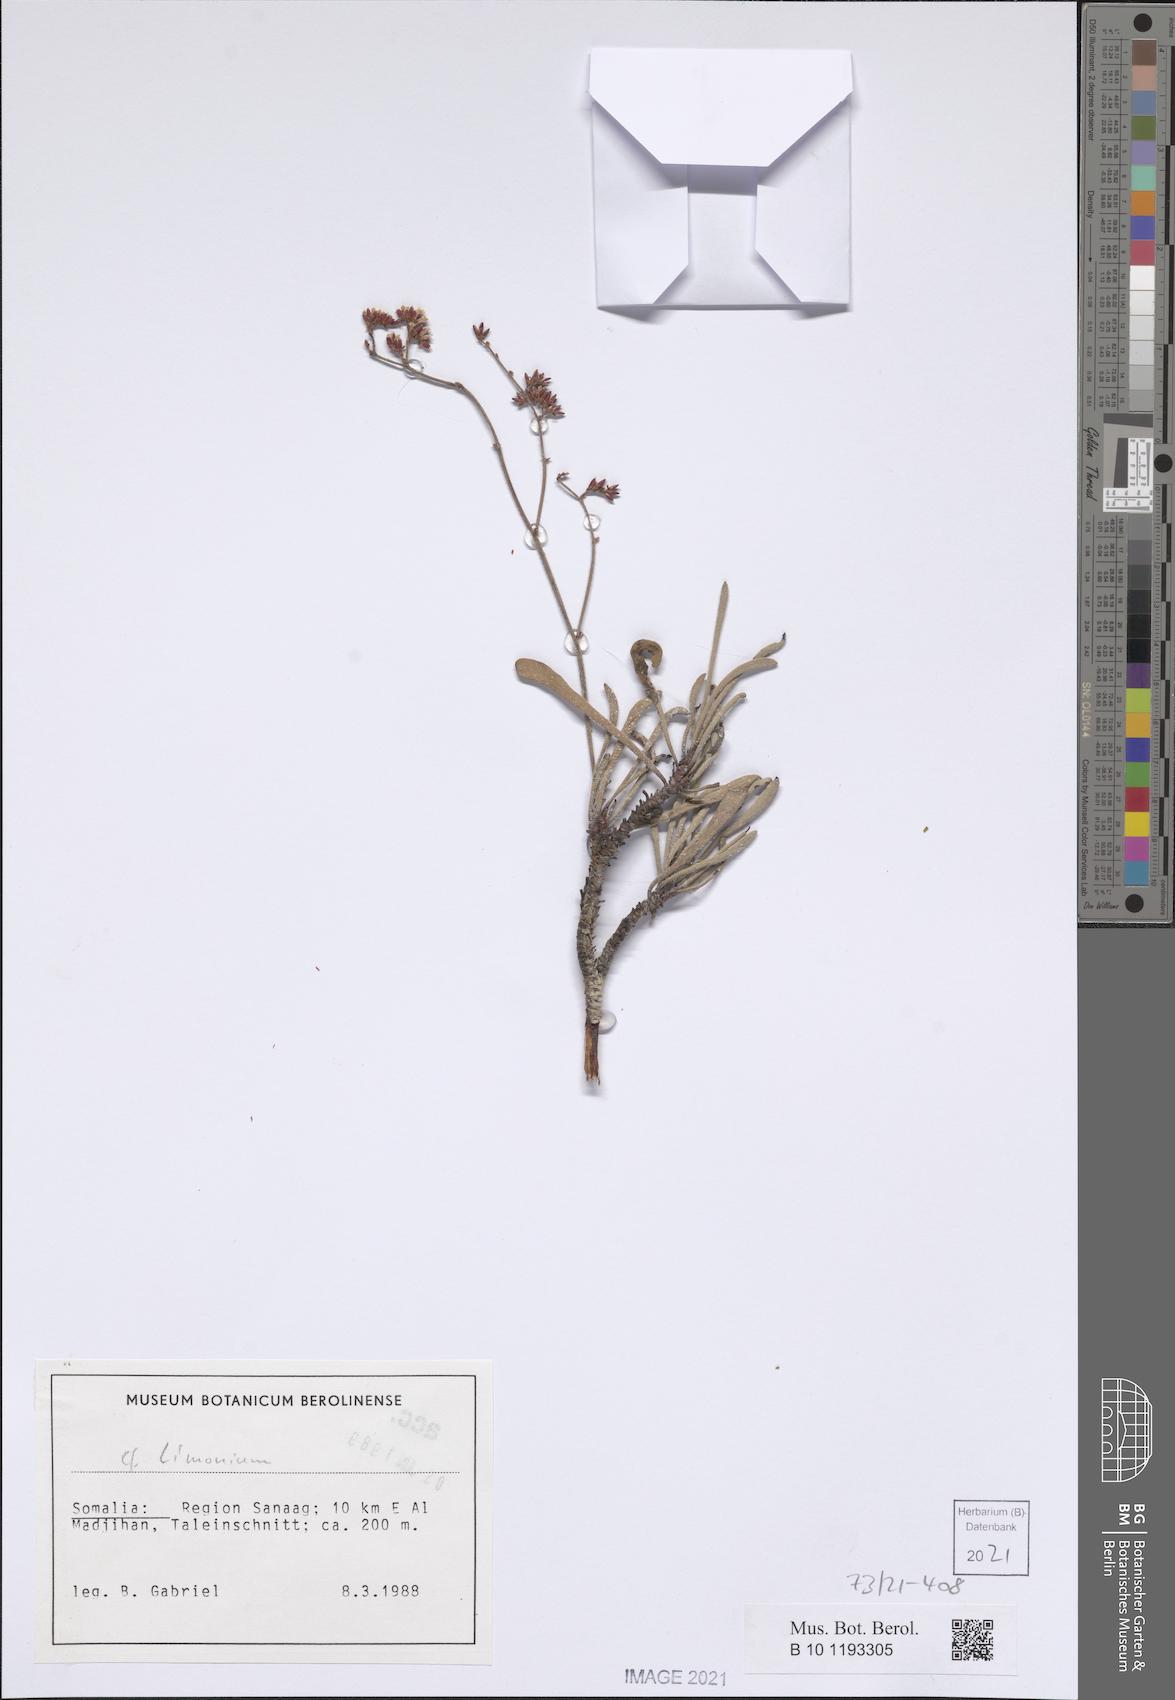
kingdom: Plantae
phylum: Tracheophyta
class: Magnoliopsida
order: Caryophyllales
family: Plumbaginaceae
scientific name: Plumbaginaceae
